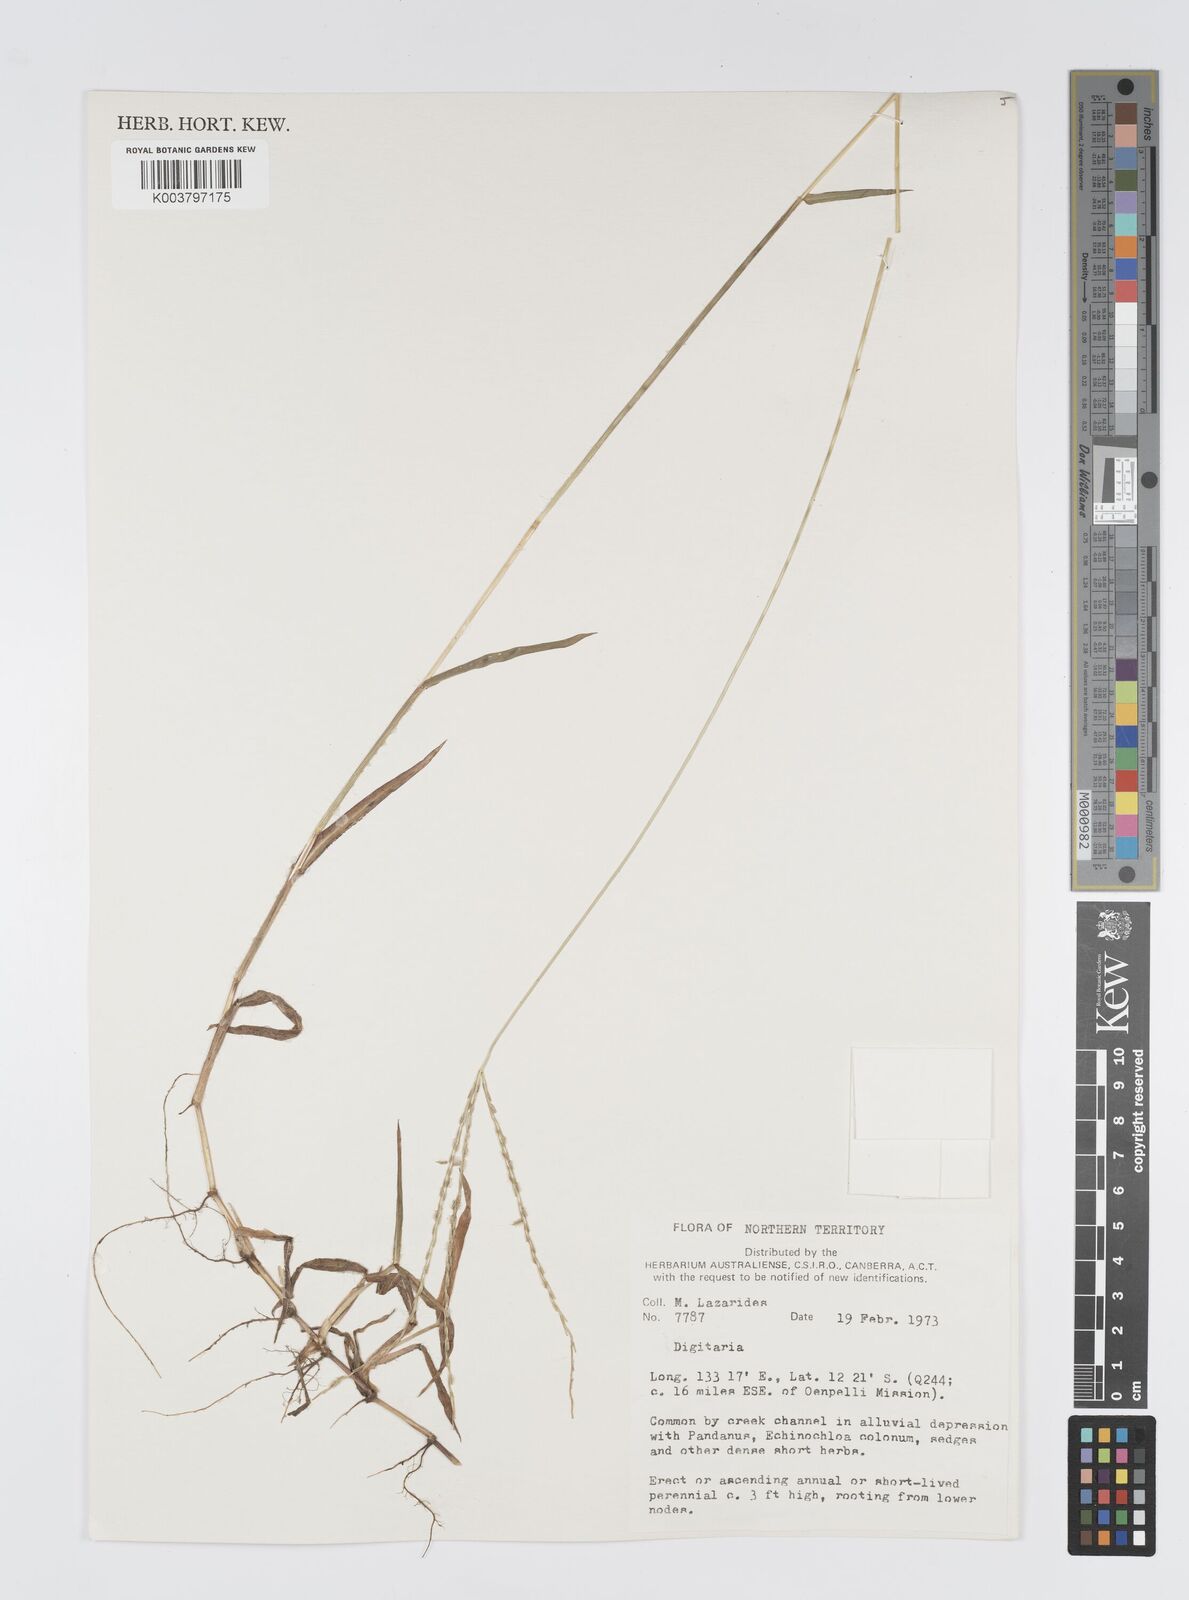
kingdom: Plantae
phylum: Tracheophyta
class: Liliopsida
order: Poales
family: Poaceae
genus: Digitaria
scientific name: Digitaria spec
